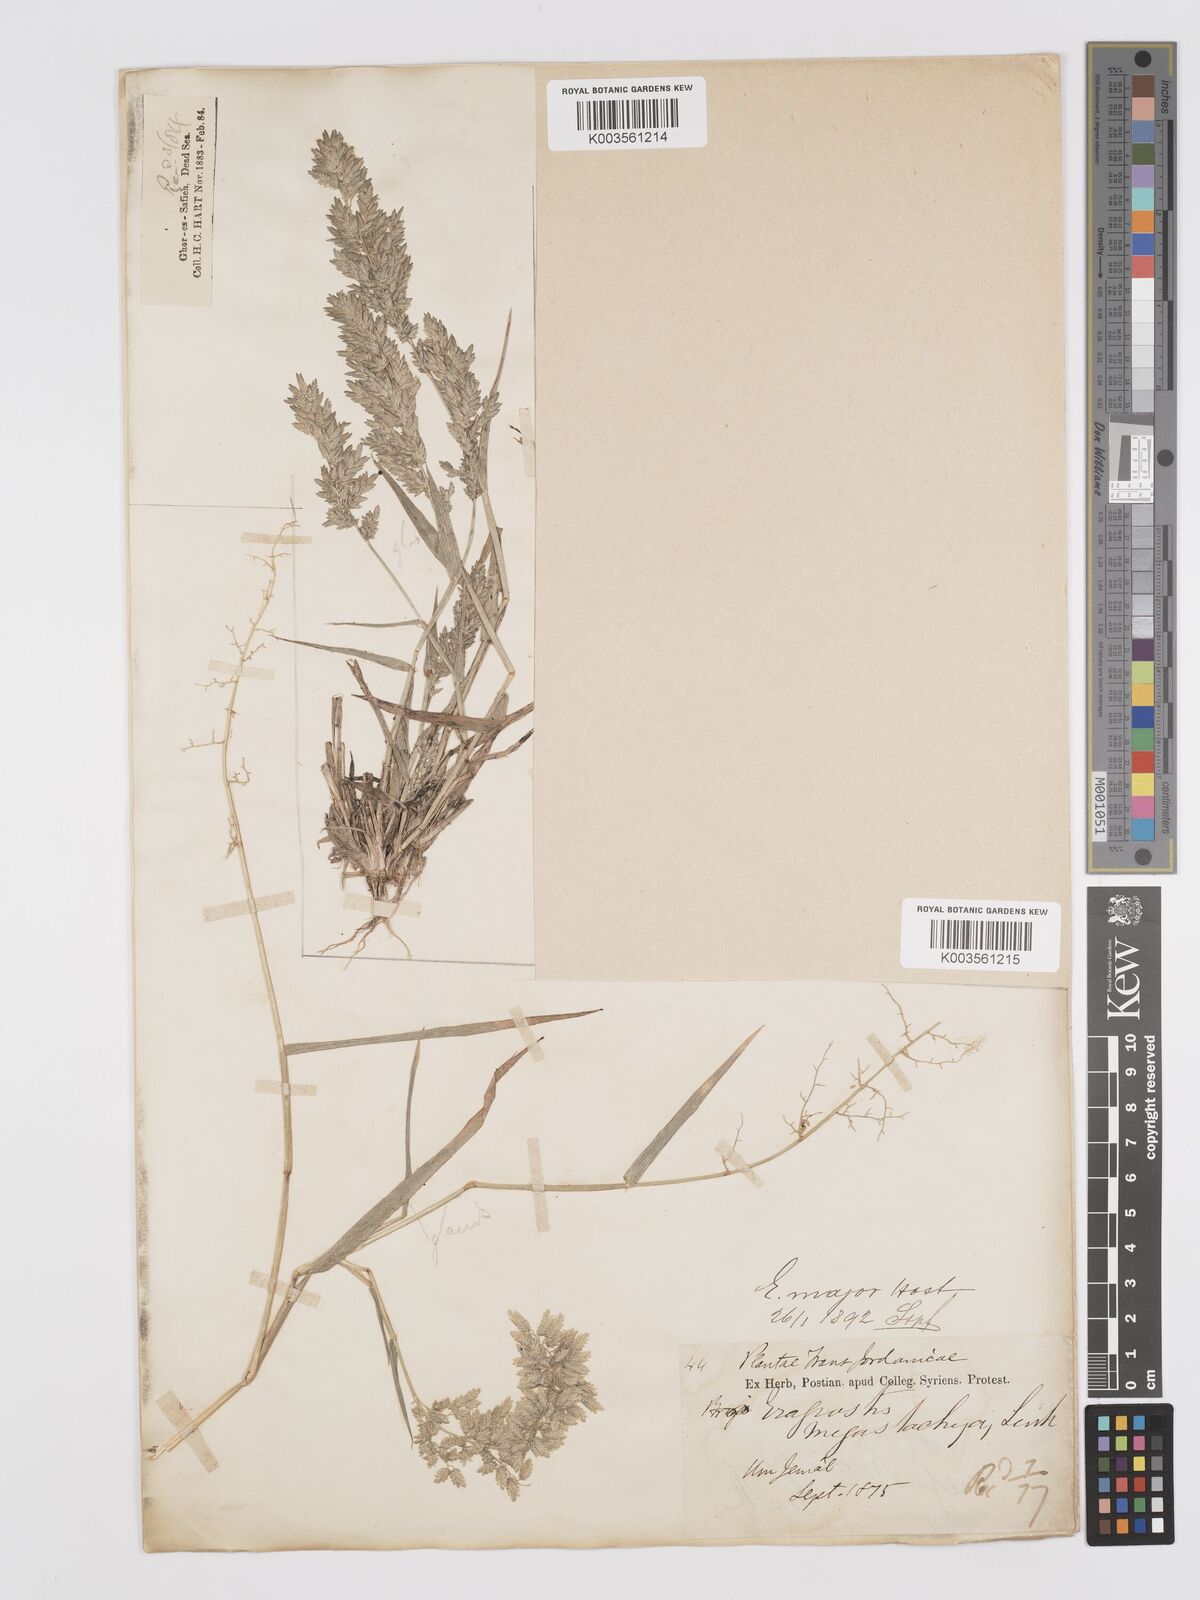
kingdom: Plantae
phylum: Tracheophyta
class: Liliopsida
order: Poales
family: Poaceae
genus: Eragrostis
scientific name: Eragrostis cilianensis
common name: Stinkgrass
